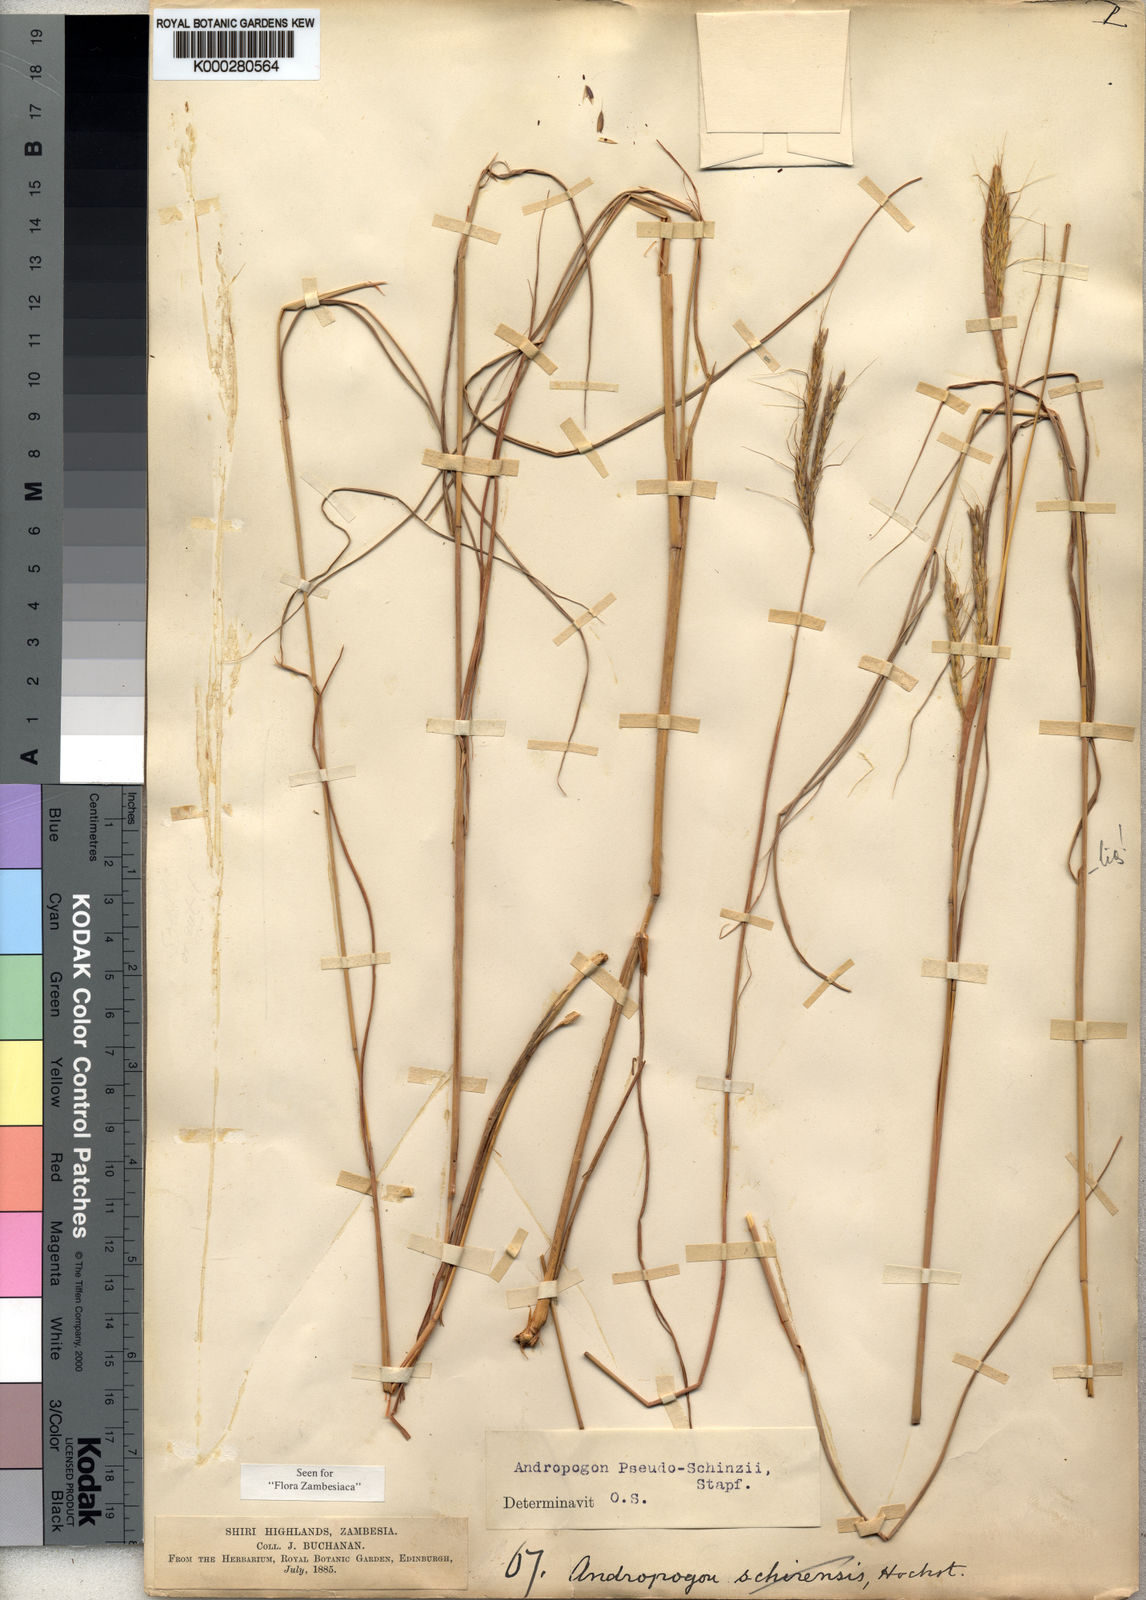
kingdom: Plantae
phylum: Tracheophyta
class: Liliopsida
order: Poales
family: Poaceae
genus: Andropogon
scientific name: Andropogon chinensis
